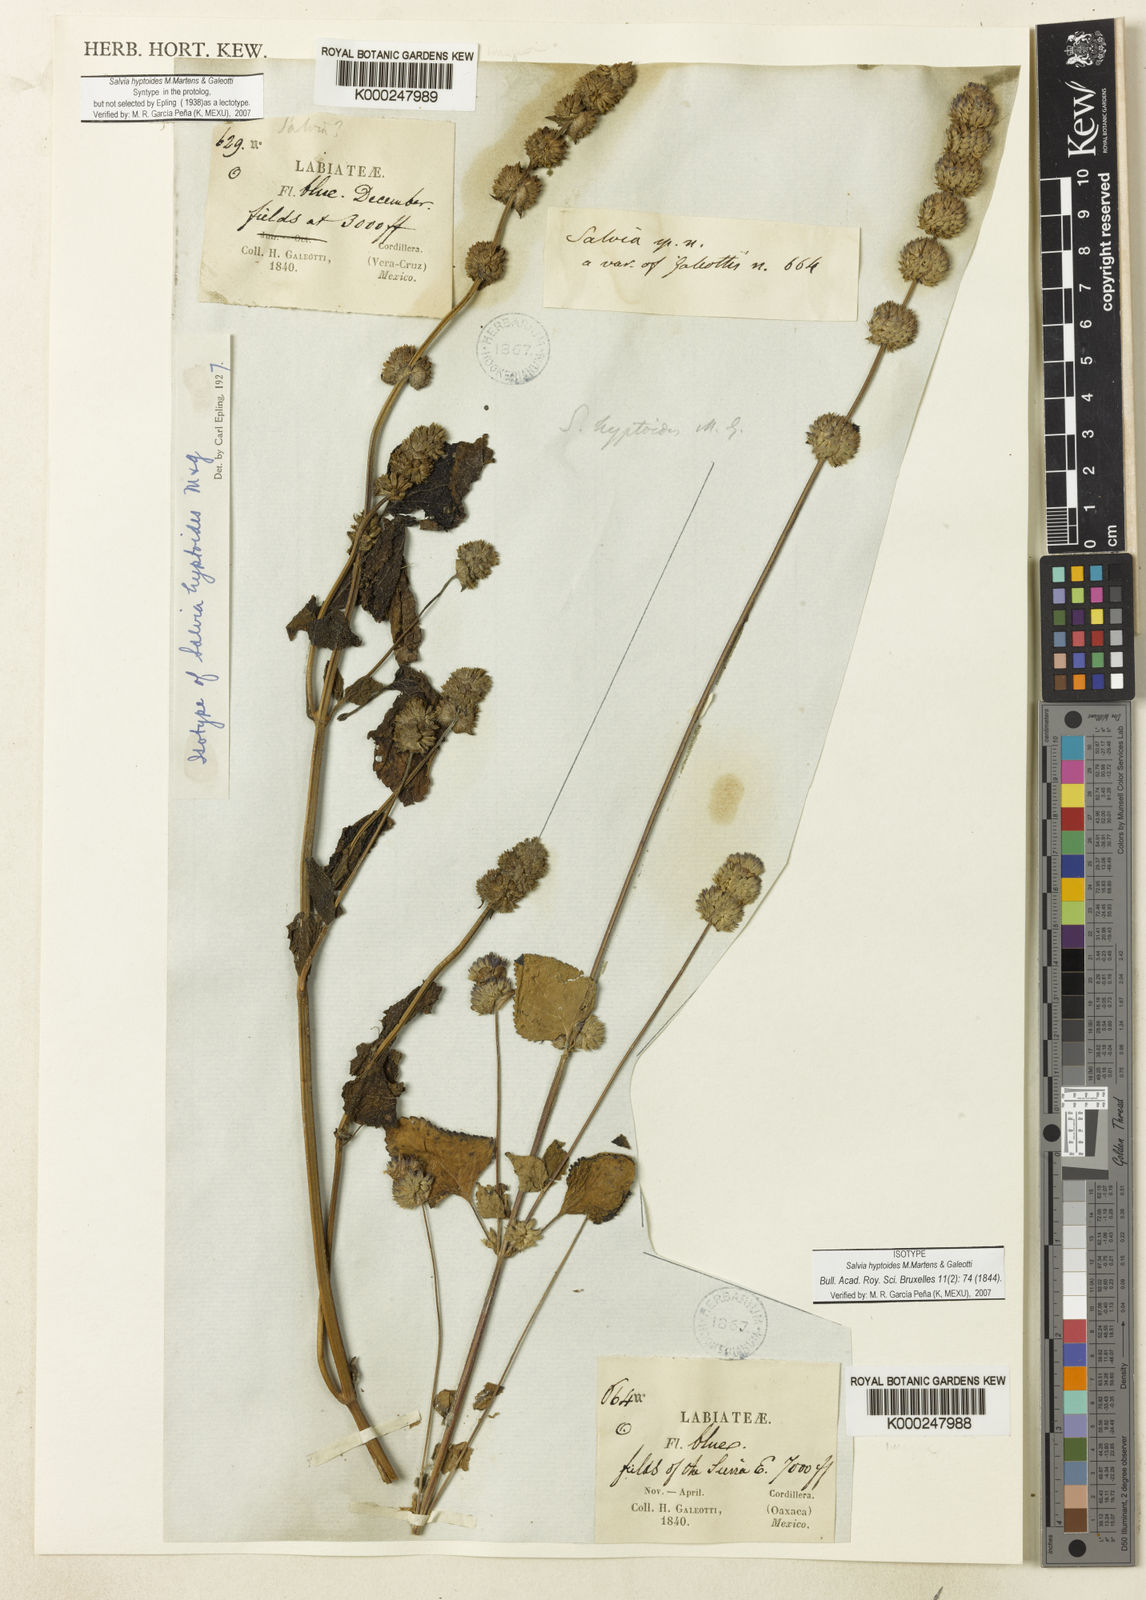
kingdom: Plantae
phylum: Tracheophyta
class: Magnoliopsida
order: Lamiales
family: Lamiaceae
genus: Salvia
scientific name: Salvia lasiocephala
